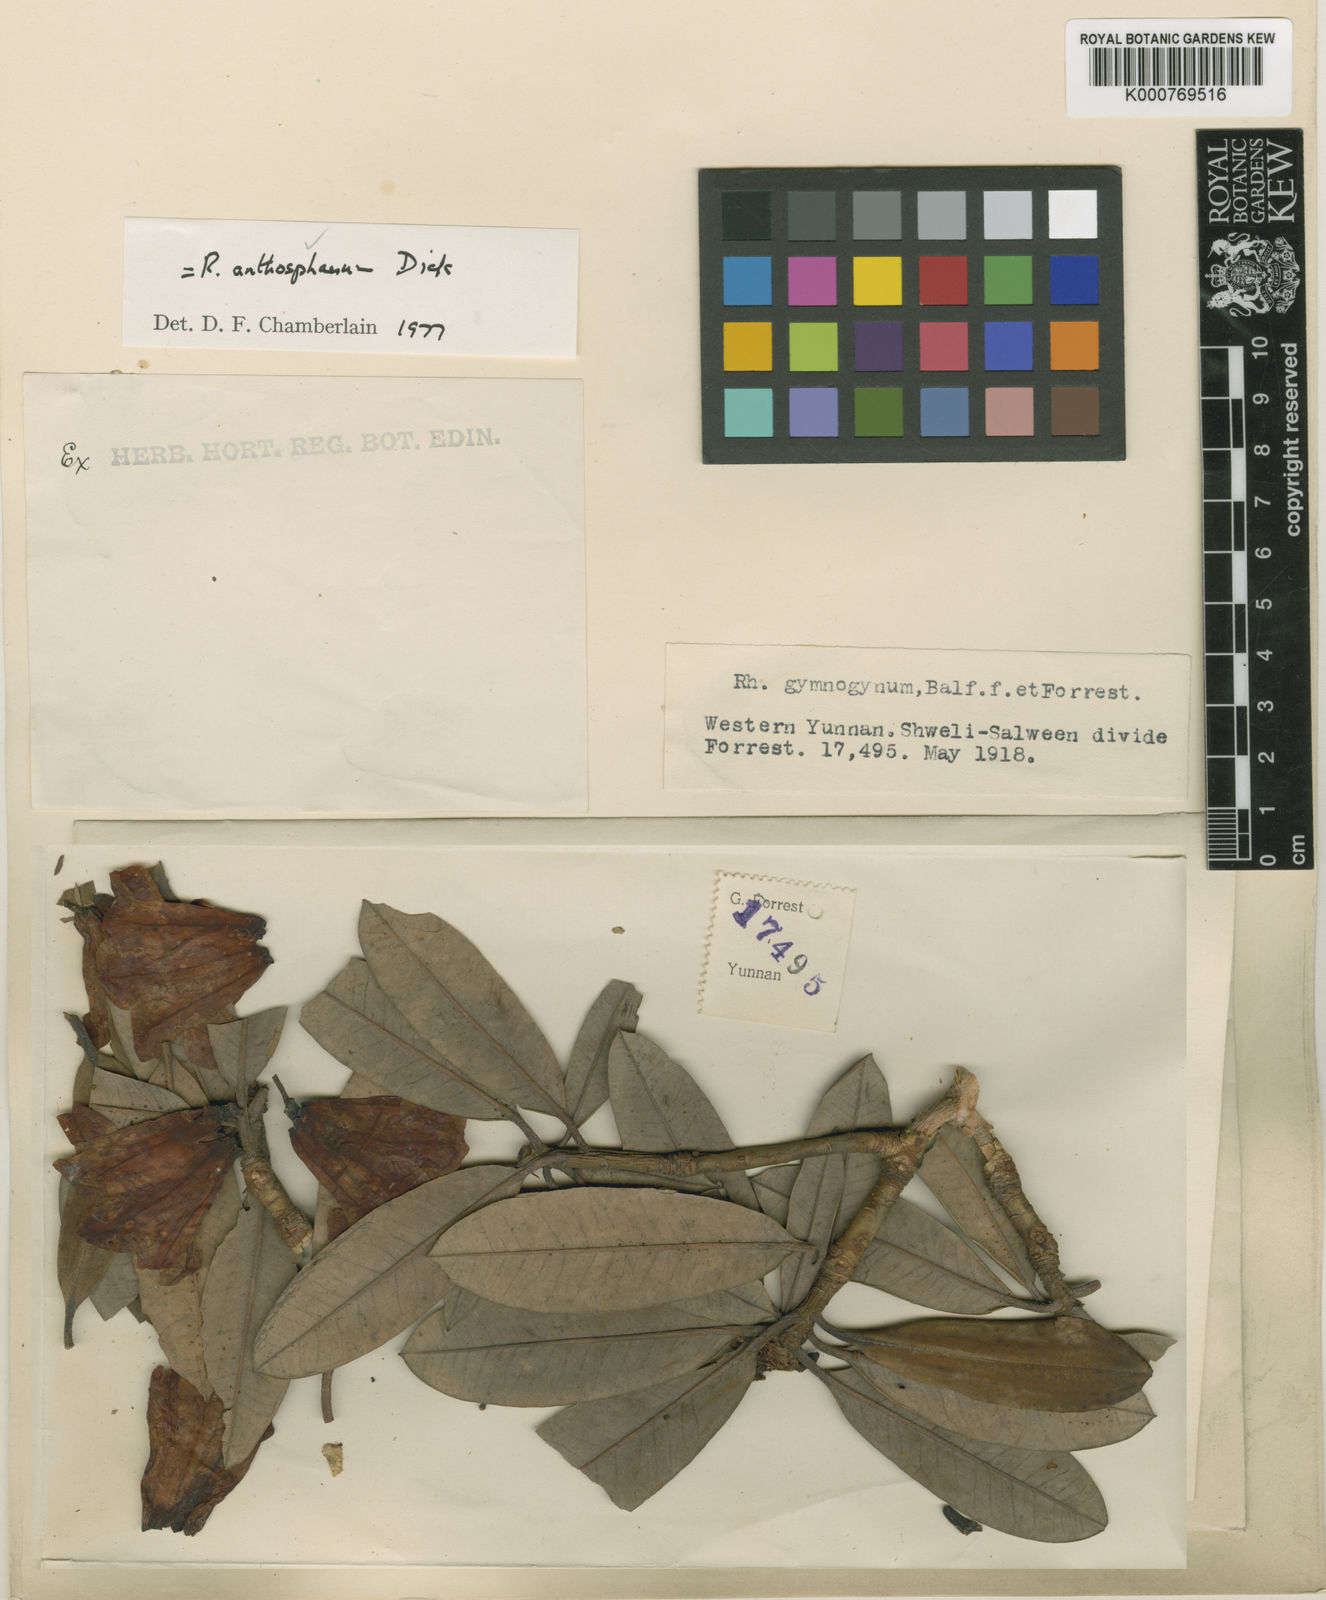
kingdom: Plantae
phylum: Tracheophyta
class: Magnoliopsida
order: Ericales
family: Ericaceae
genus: Rhododendron
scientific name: Rhododendron anthosphaerum
